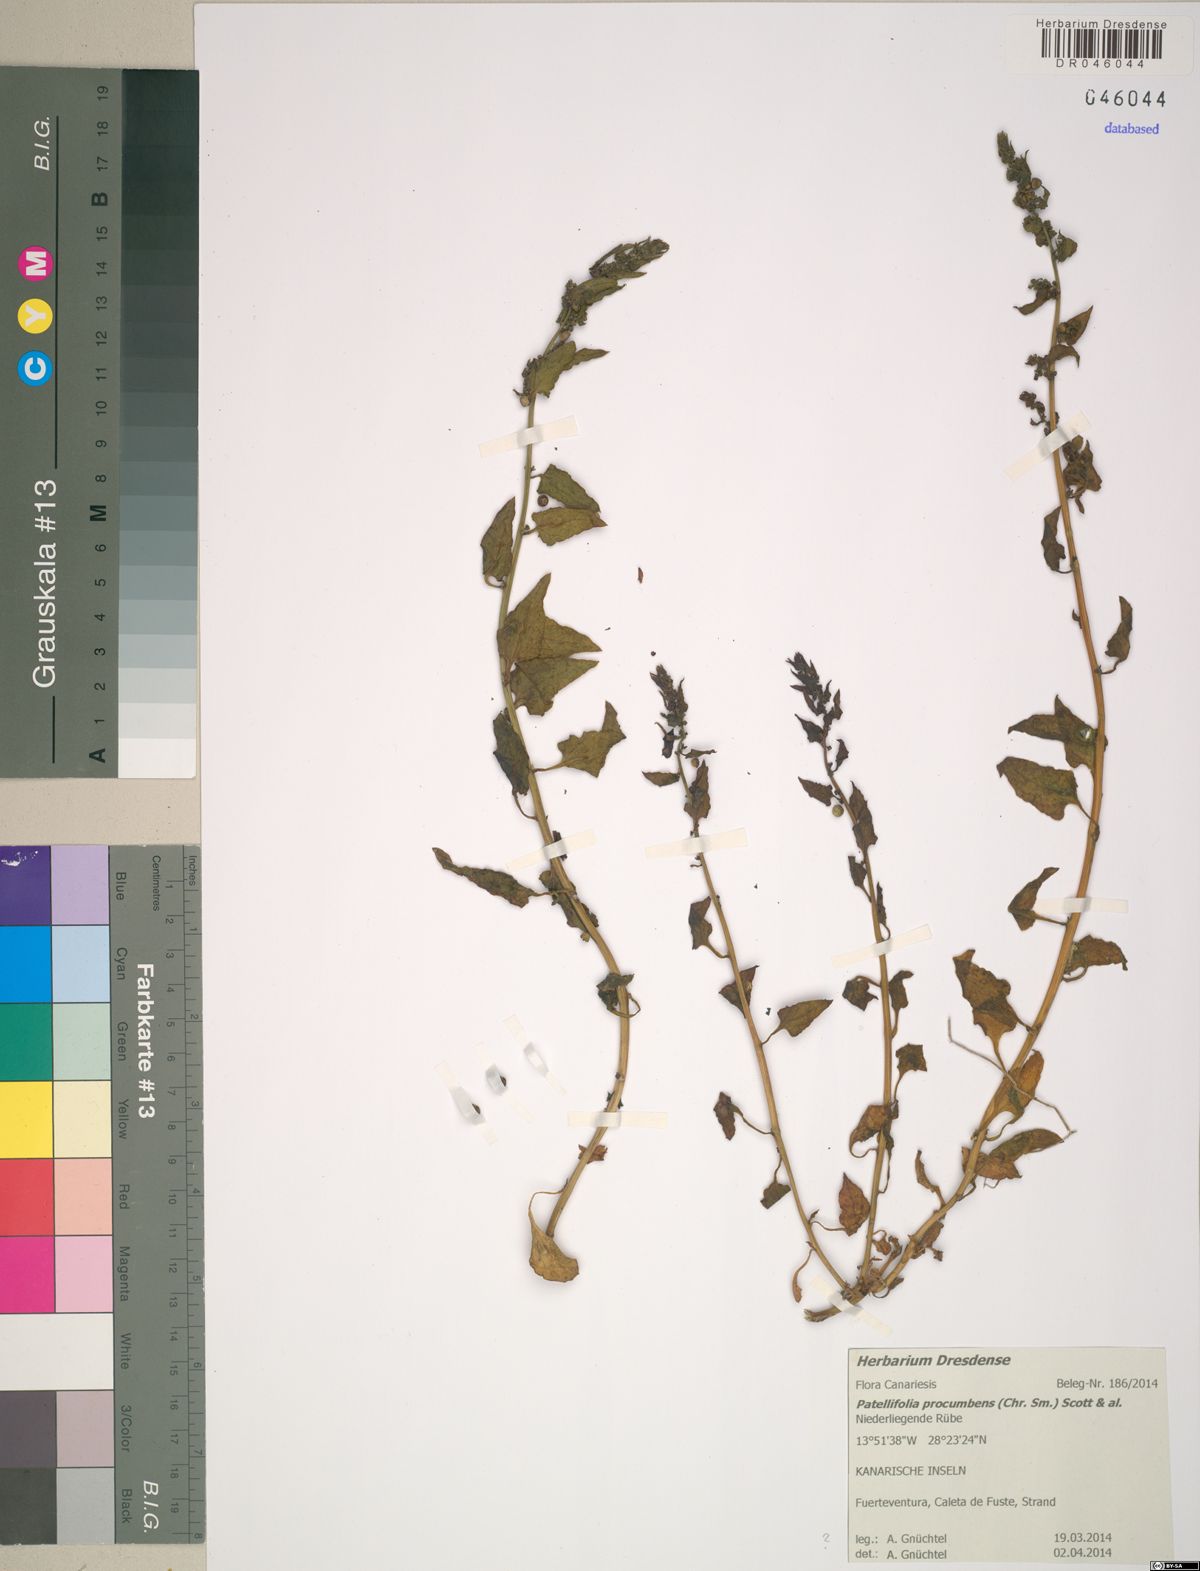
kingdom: Plantae
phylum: Tracheophyta
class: Magnoliopsida
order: Caryophyllales
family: Amaranthaceae
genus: Patellifolia
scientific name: Patellifolia procumbens
